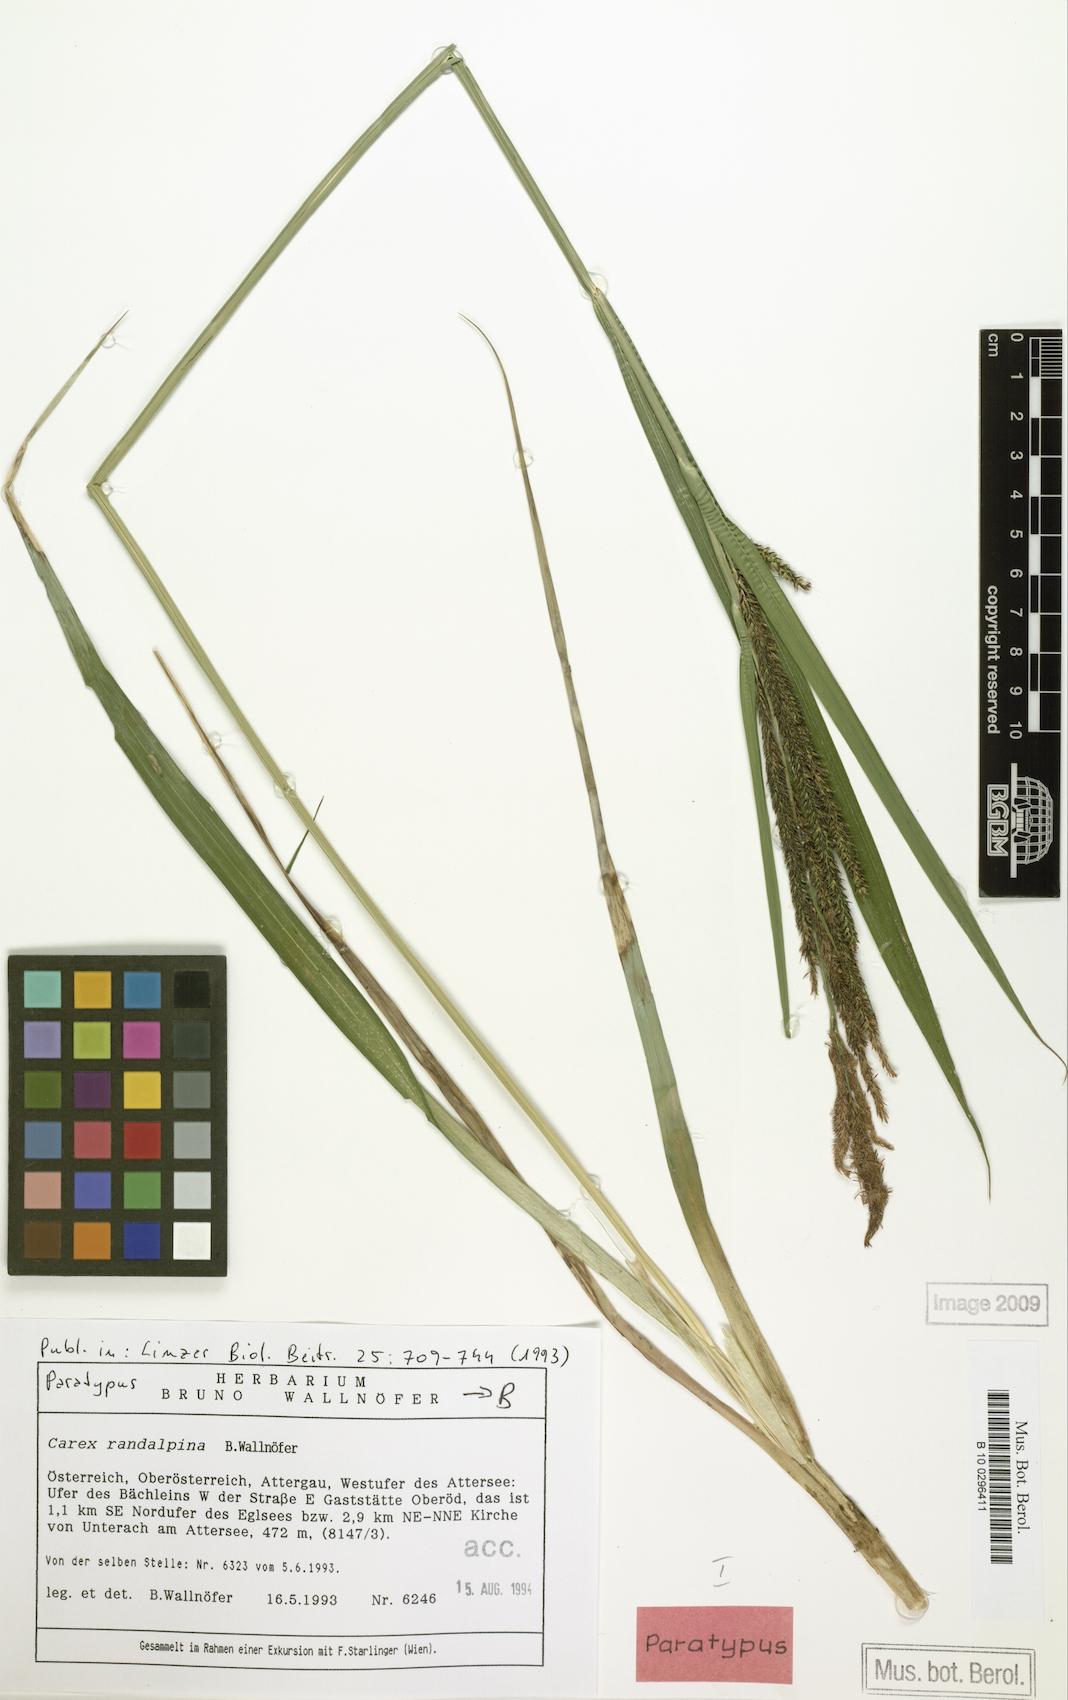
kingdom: Plantae
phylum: Tracheophyta
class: Liliopsida
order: Poales
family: Cyperaceae
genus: Carex
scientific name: Carex randalpina
